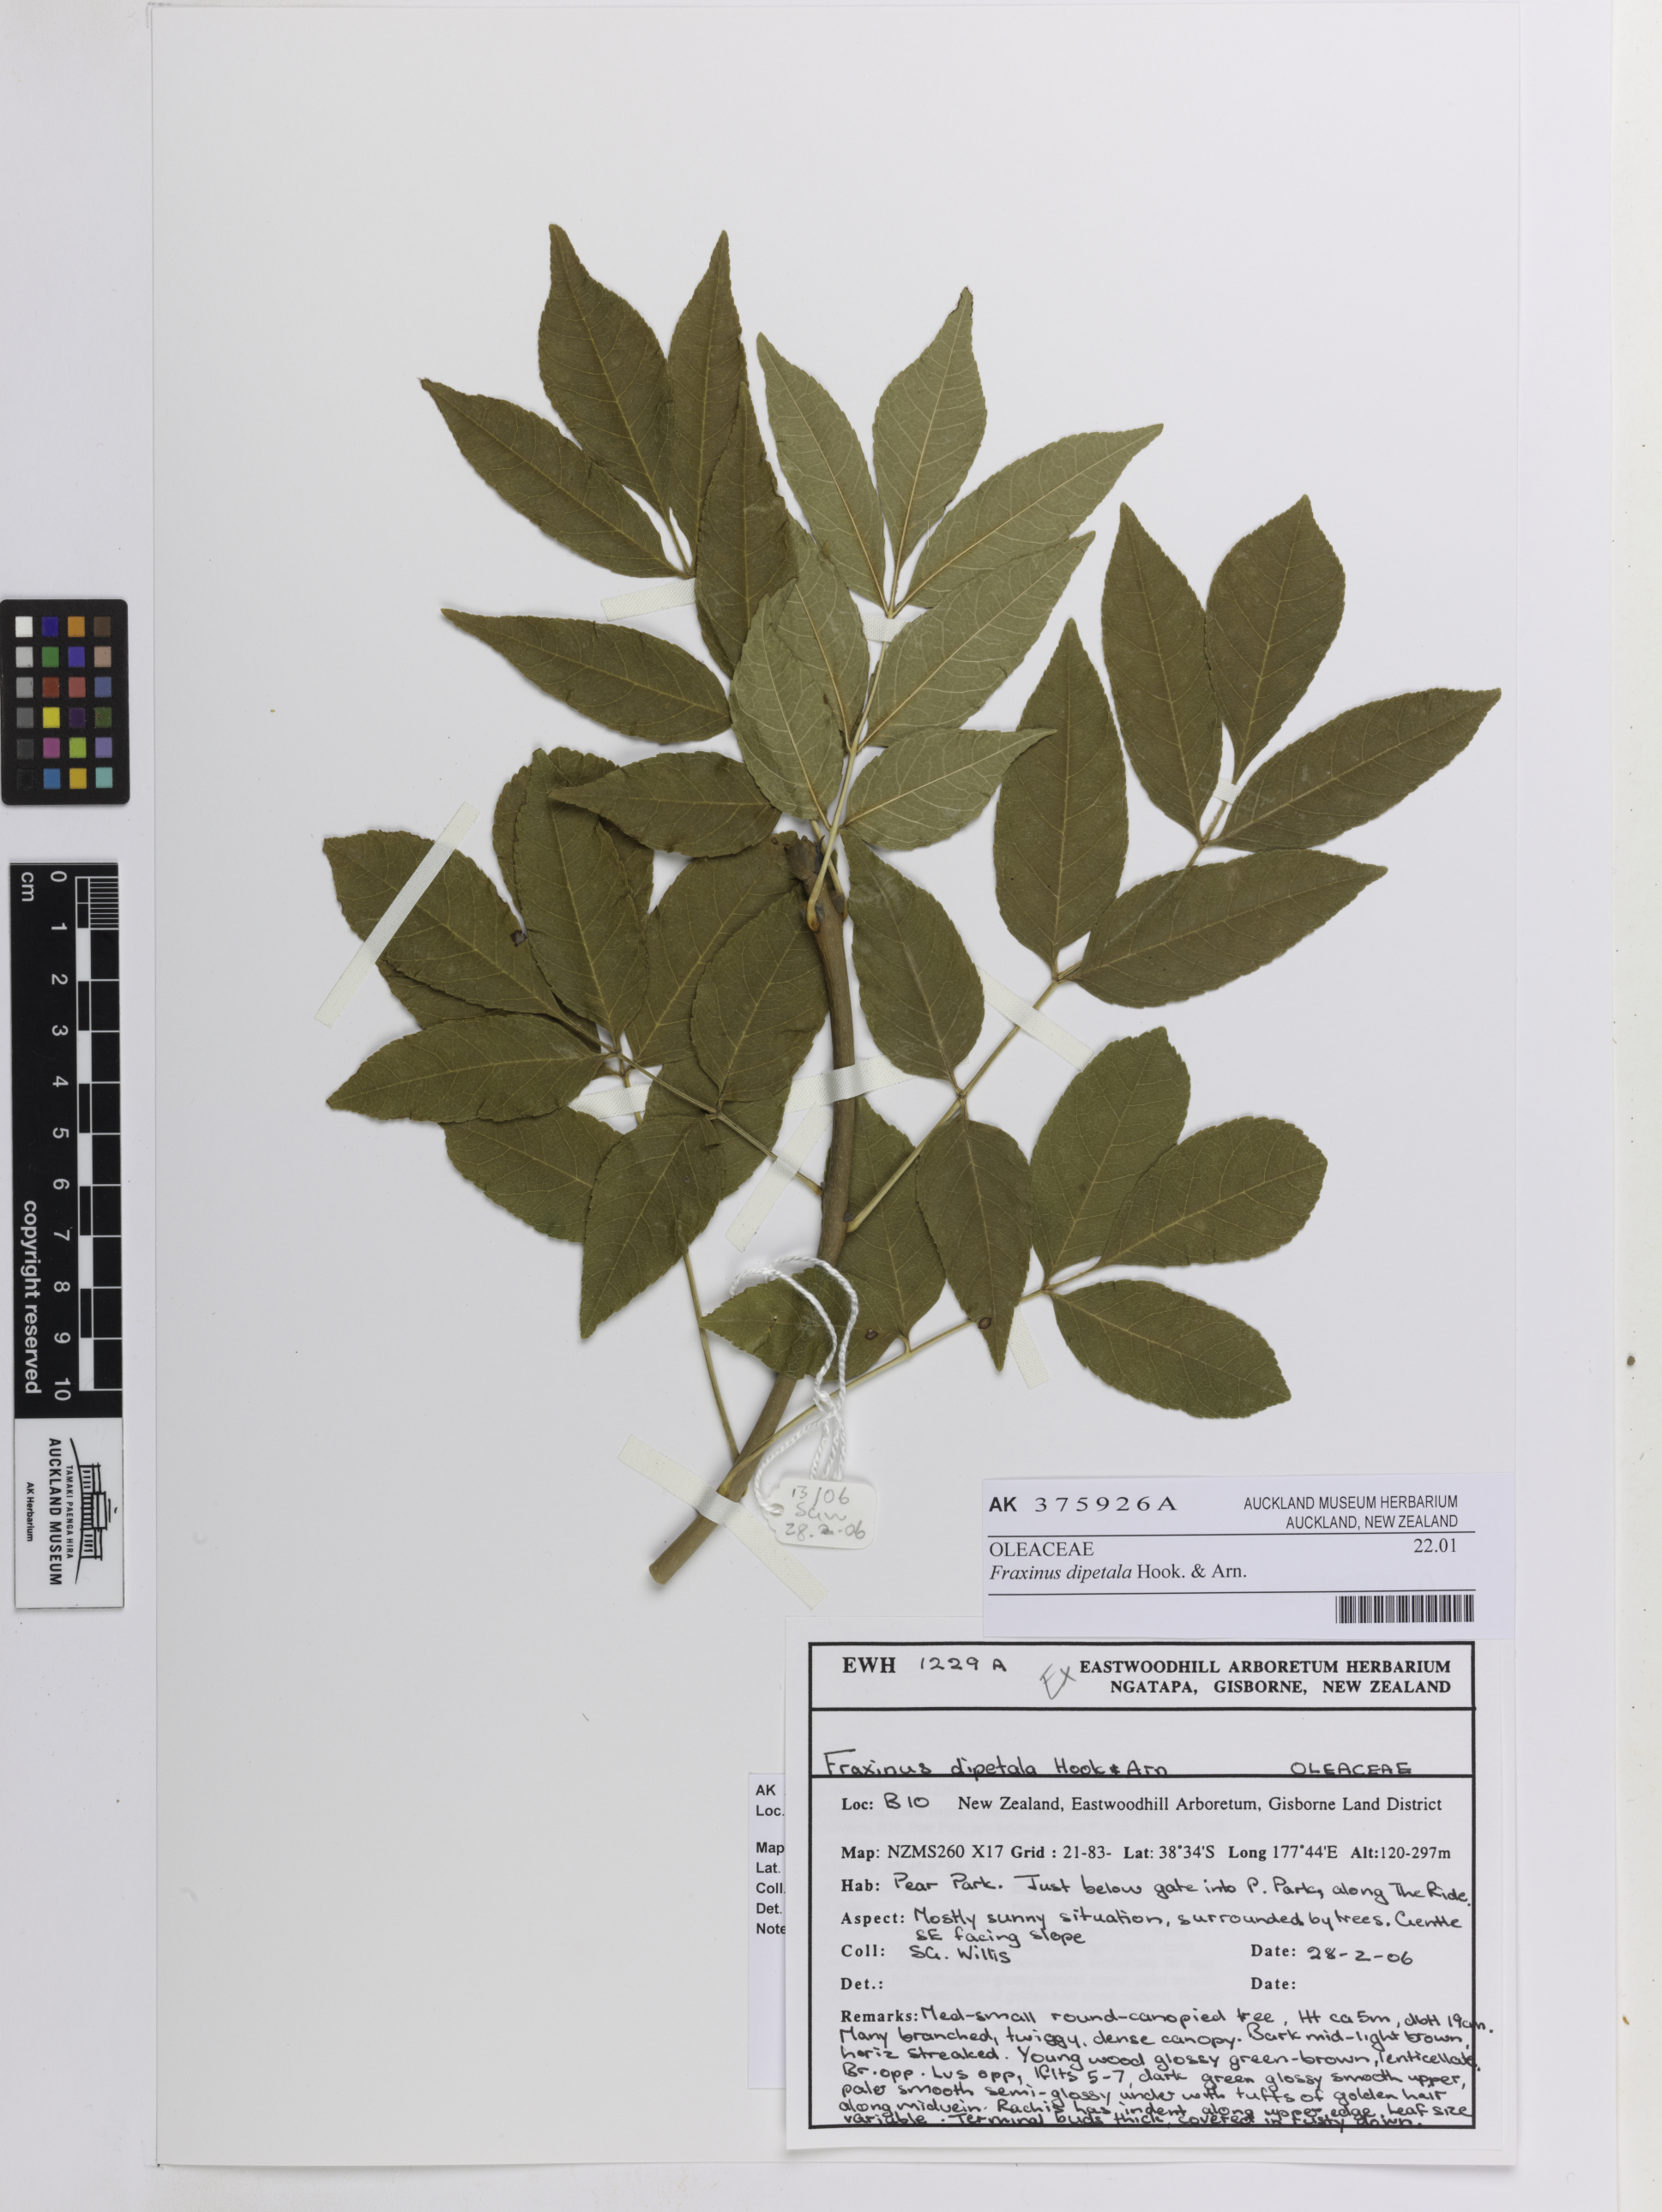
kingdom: Plantae
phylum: Tracheophyta
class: Magnoliopsida
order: Lamiales
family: Oleaceae
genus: Fraxinus
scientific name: Fraxinus dipetala
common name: California ash
